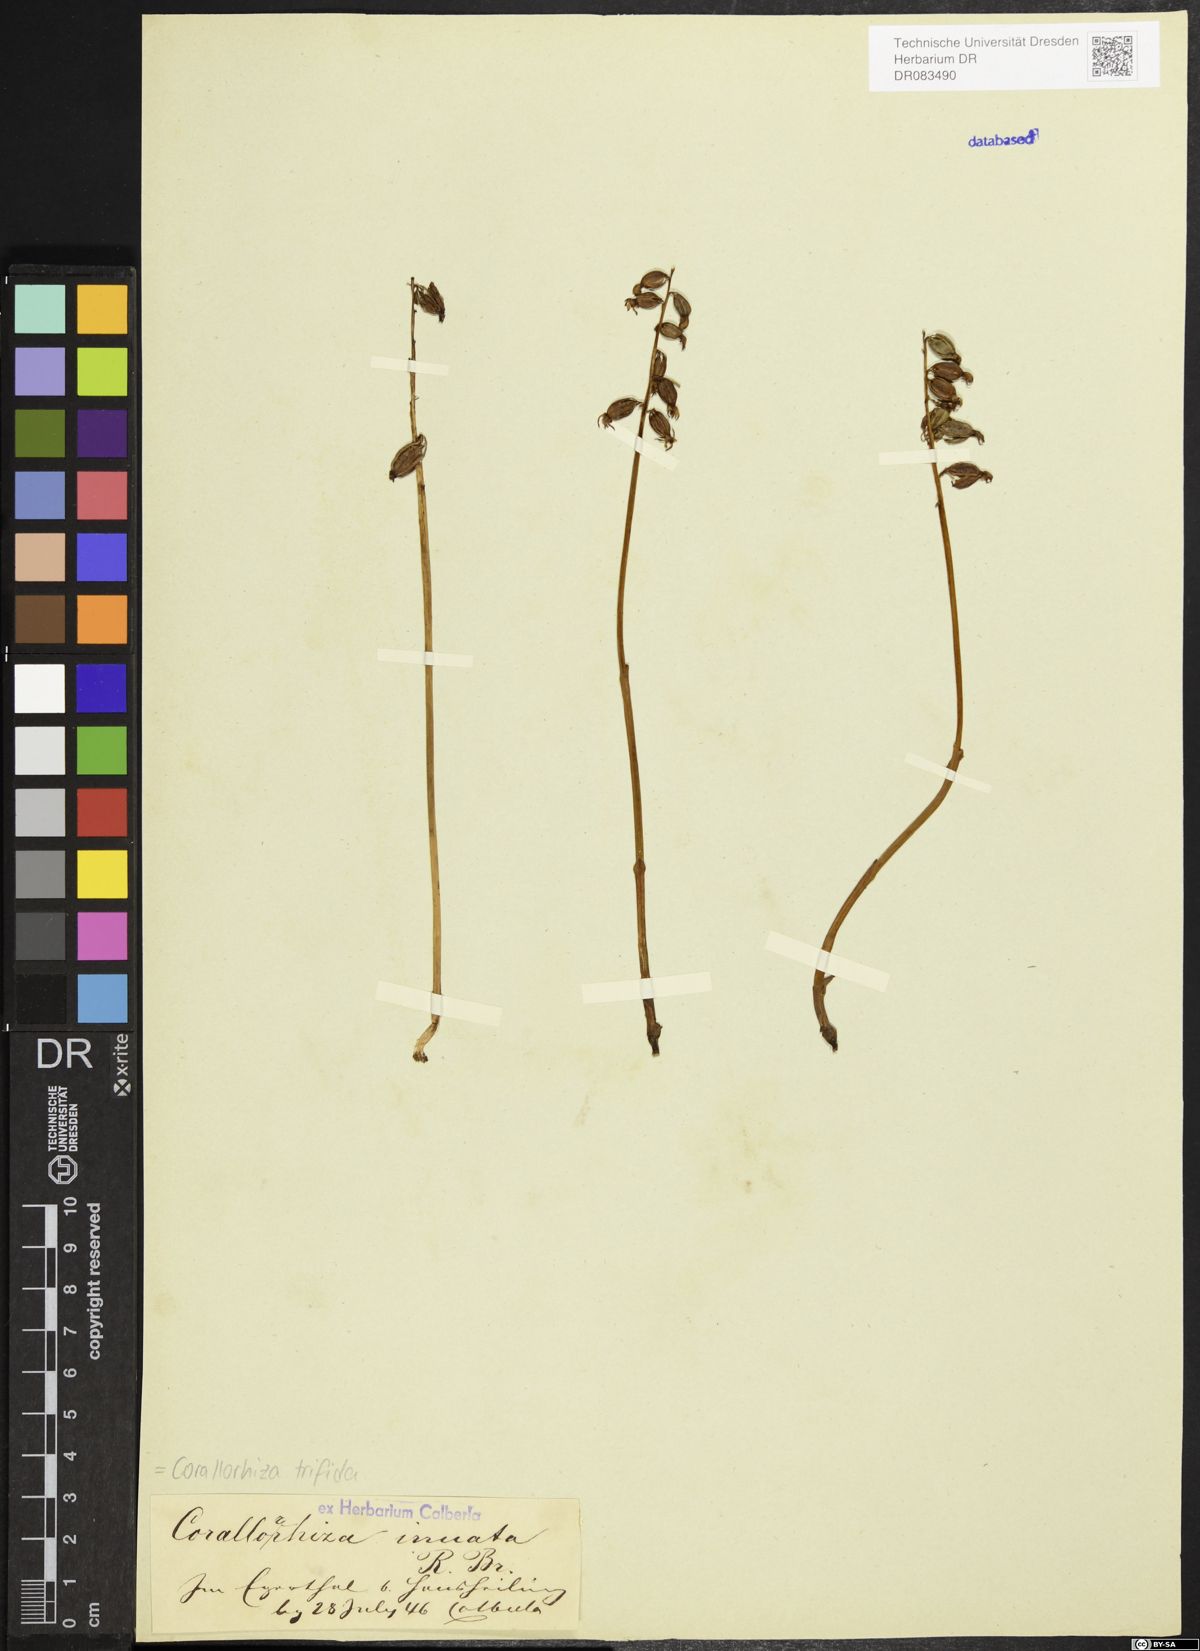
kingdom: Plantae
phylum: Tracheophyta
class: Liliopsida
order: Asparagales
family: Orchidaceae
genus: Corallorhiza
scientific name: Corallorhiza trifida
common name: Yellow coralroot
